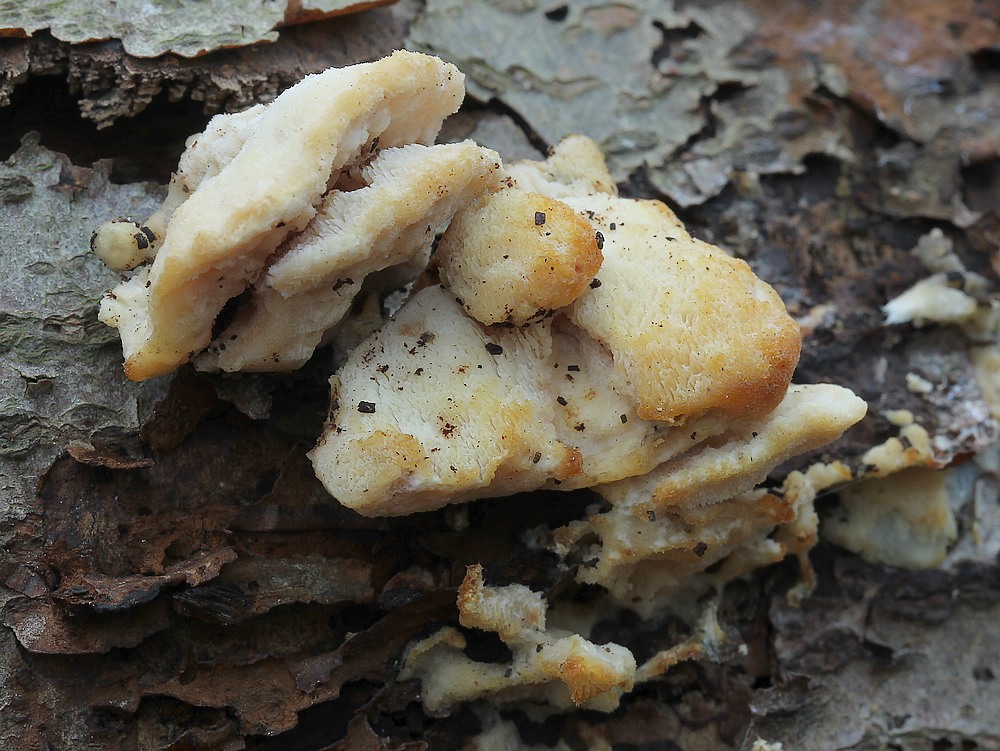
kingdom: Fungi
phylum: Basidiomycota
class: Agaricomycetes
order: Polyporales
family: Steccherinaceae
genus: Antrodiella
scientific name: Antrodiella serpula
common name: gulrandet elastikporesvamp
